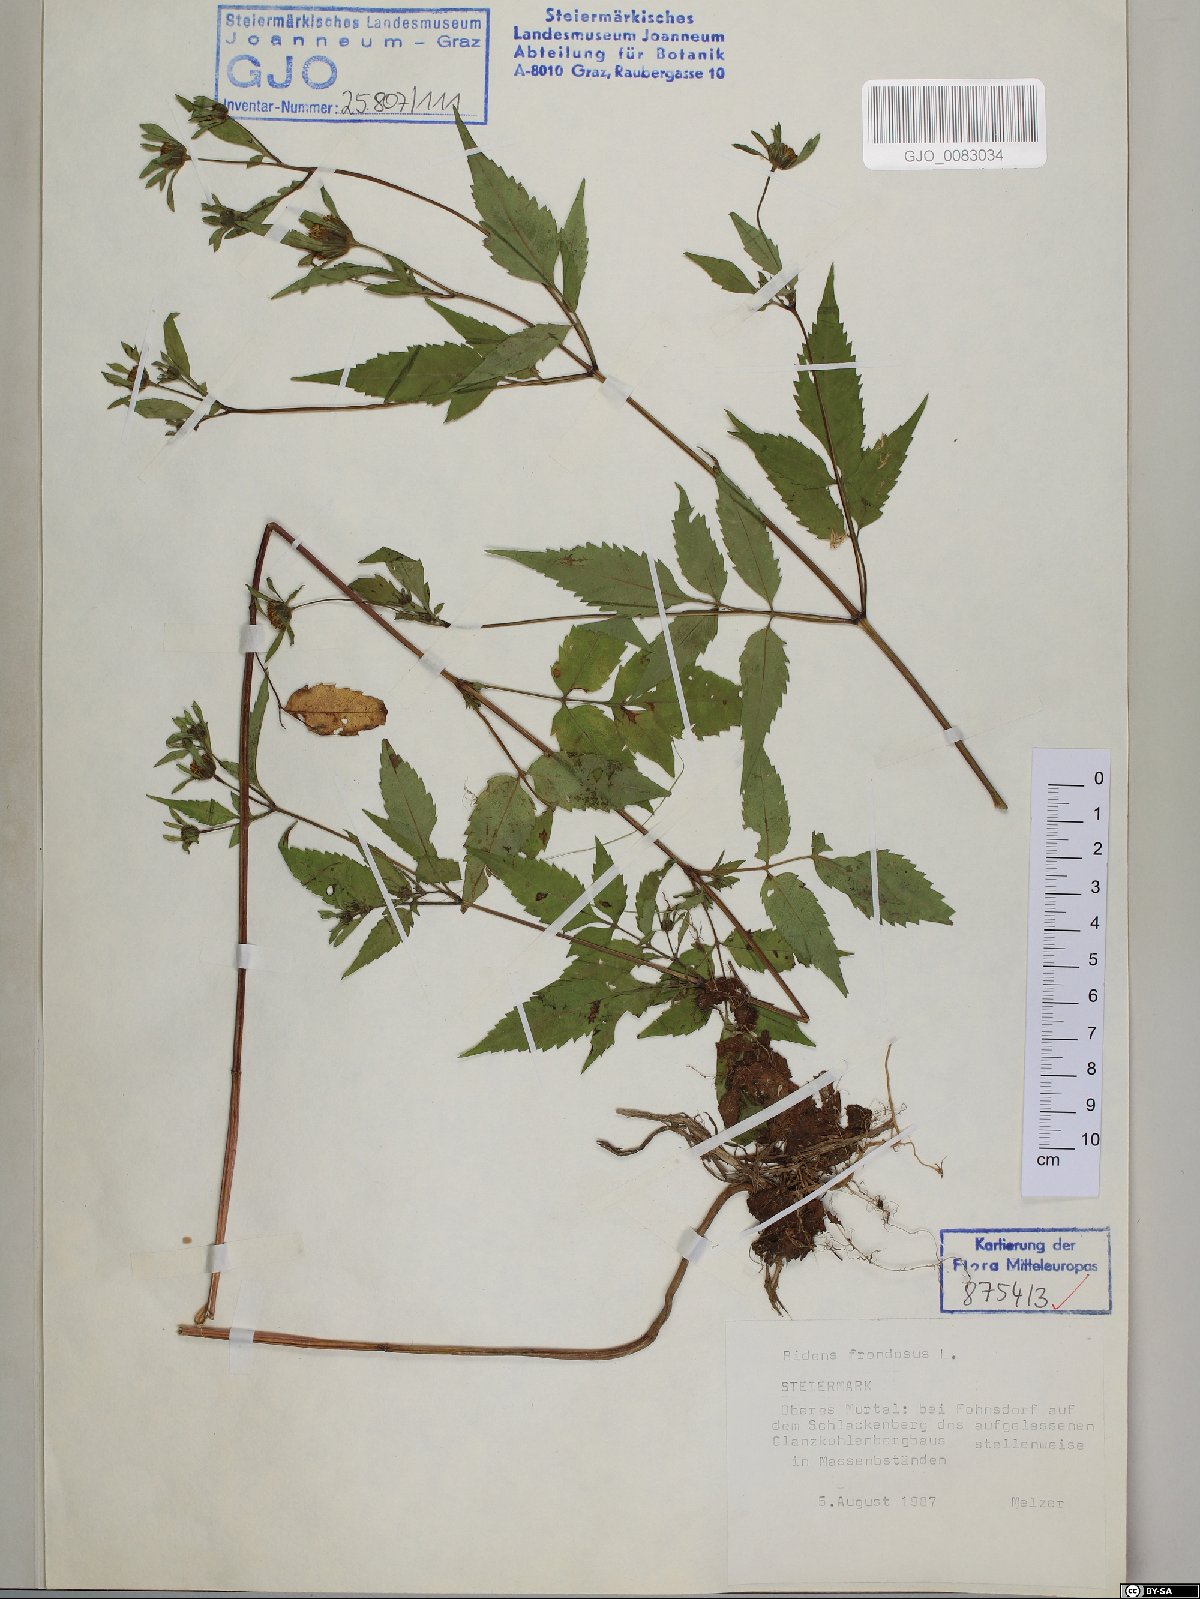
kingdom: Plantae
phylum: Tracheophyta
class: Magnoliopsida
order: Asterales
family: Asteraceae
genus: Bidens
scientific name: Bidens frondosa
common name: Beggarticks
